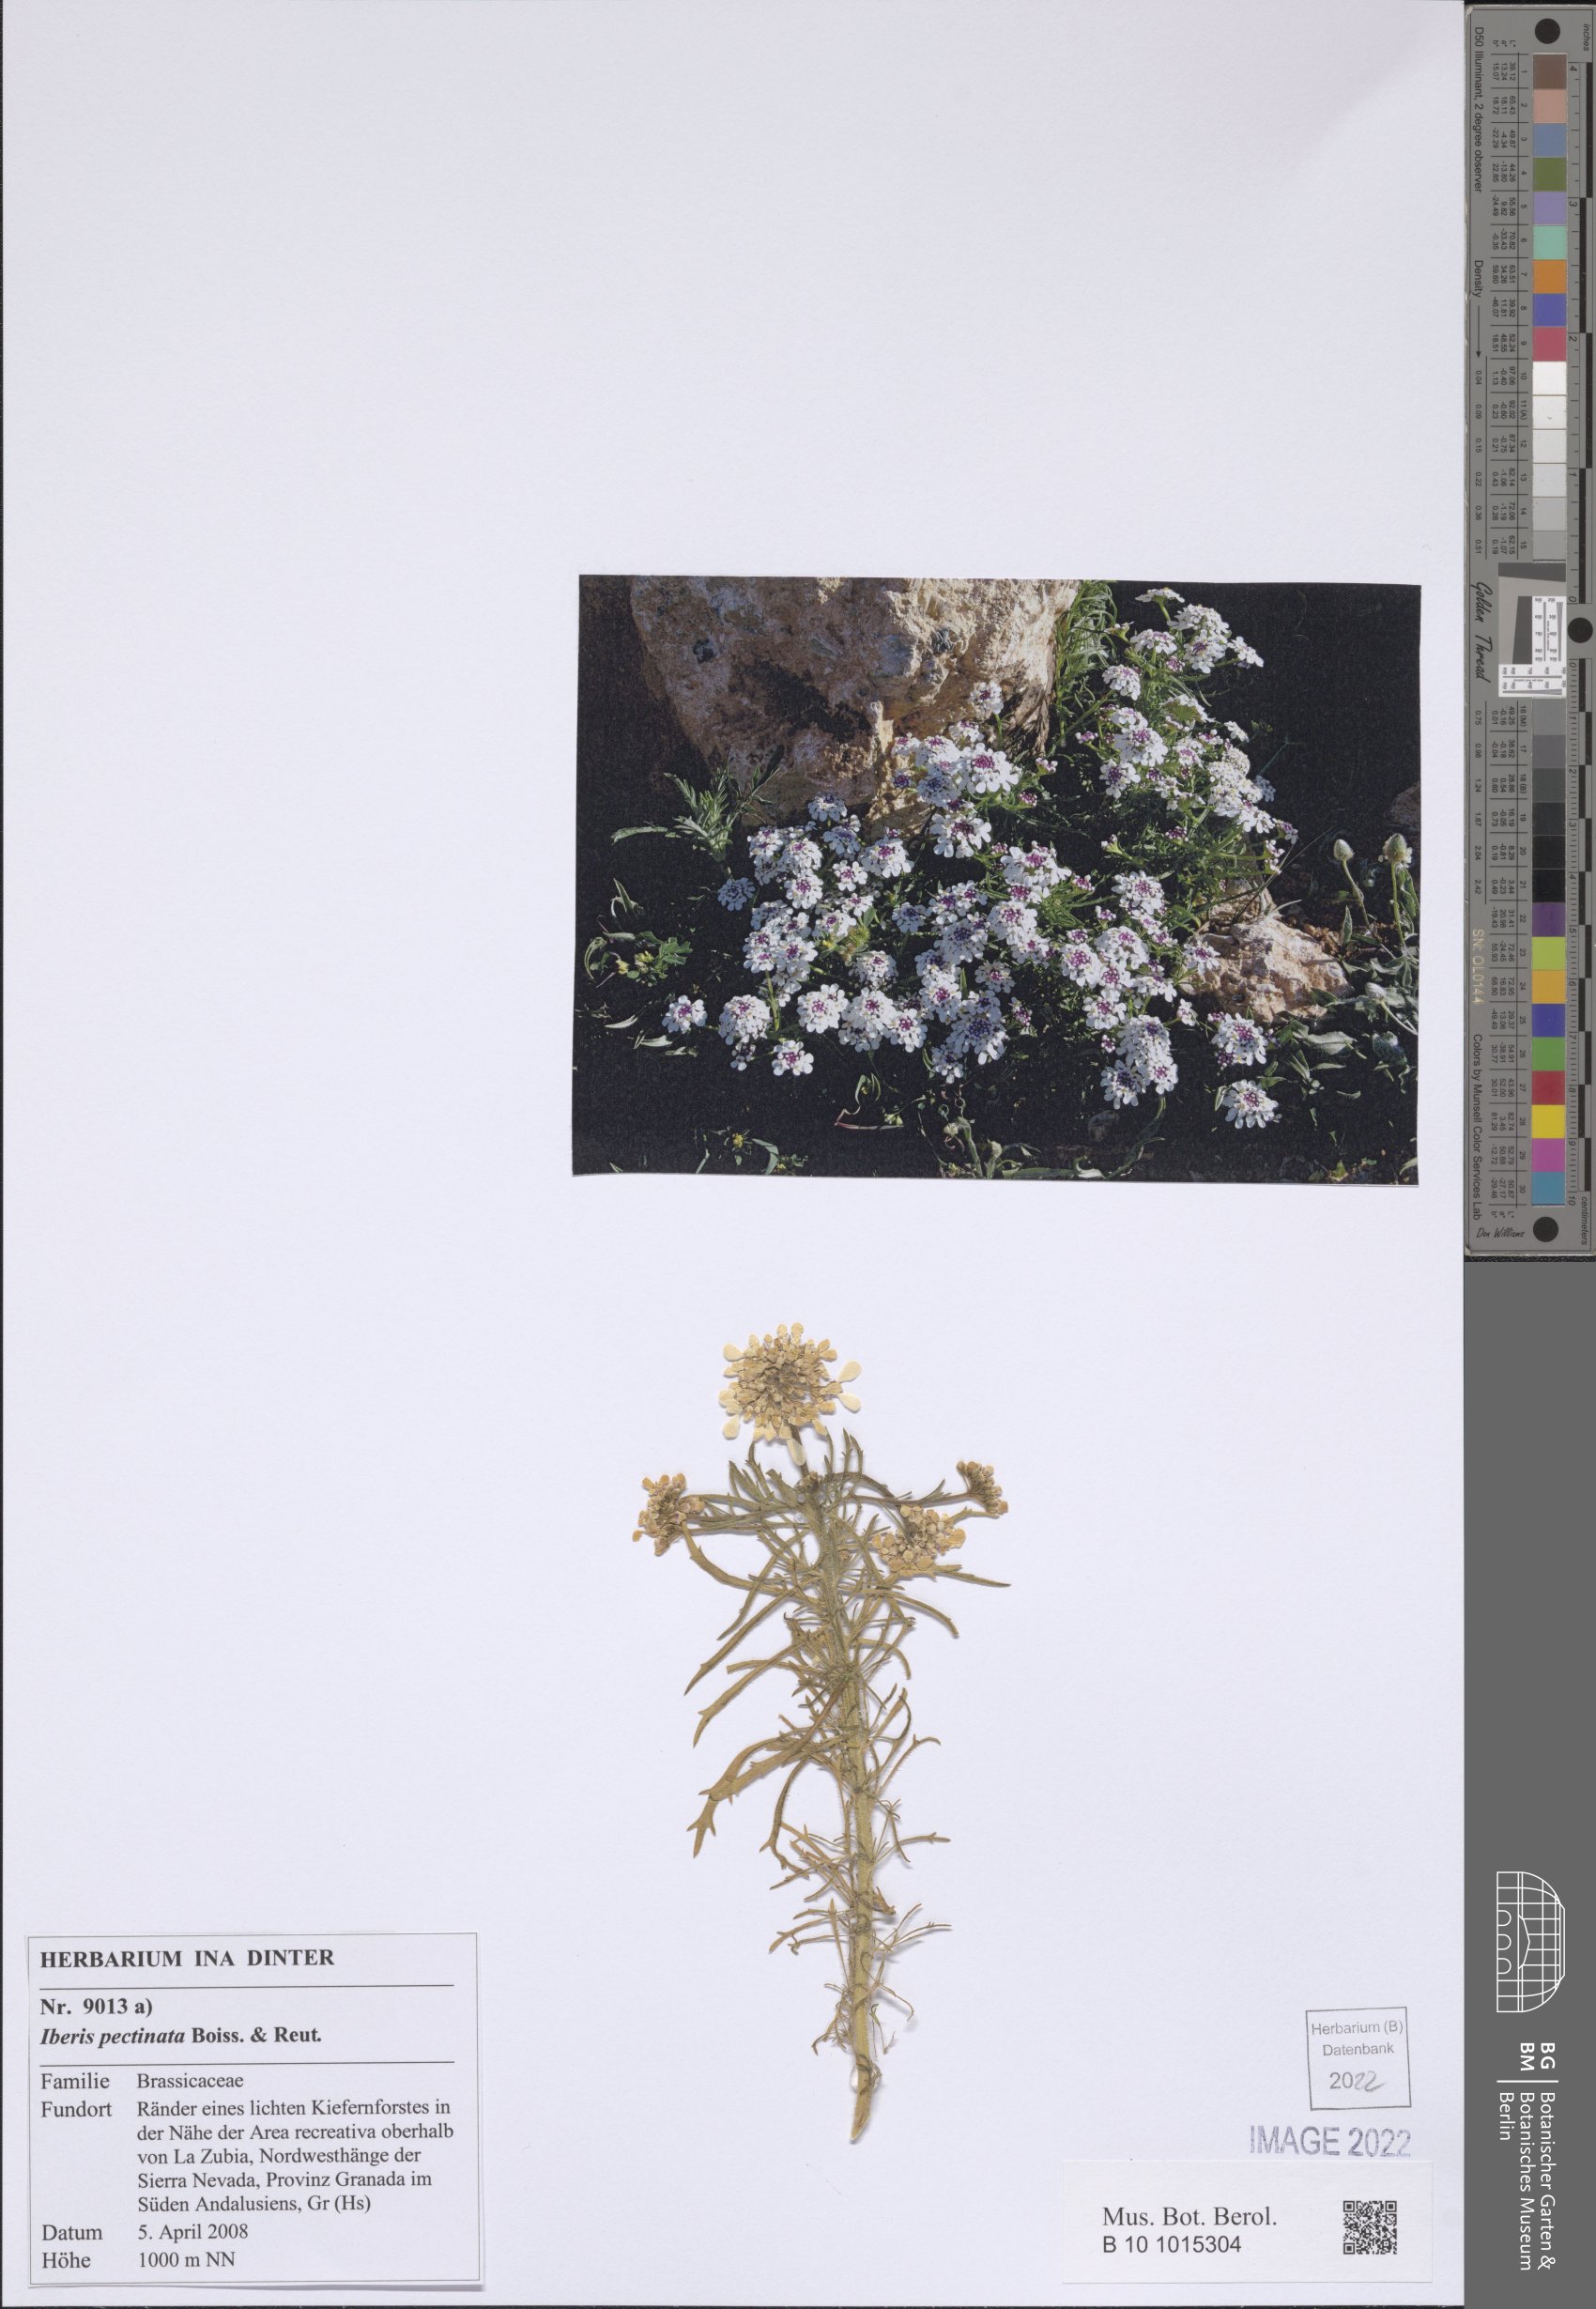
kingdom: Plantae
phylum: Tracheophyta
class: Magnoliopsida
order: Brassicales
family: Brassicaceae
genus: Iberis
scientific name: Iberis pectinata
